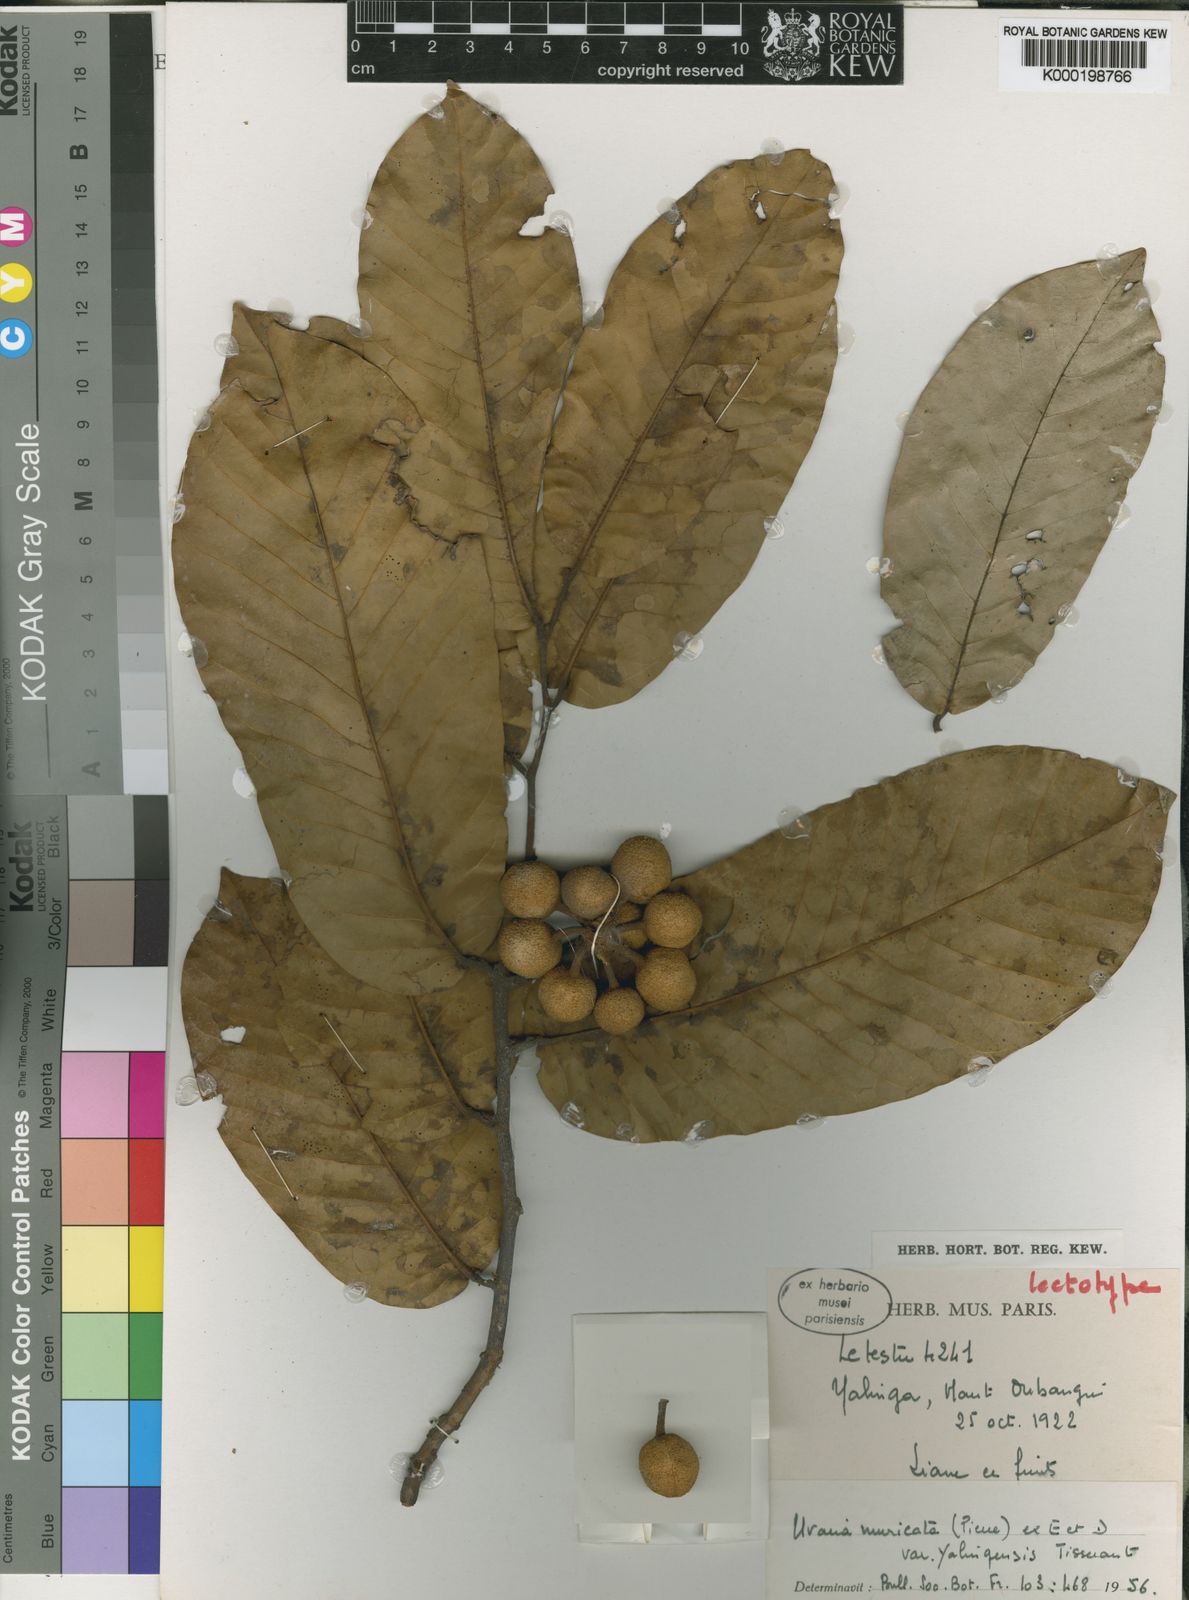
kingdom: Plantae
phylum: Tracheophyta
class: Magnoliopsida
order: Magnoliales
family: Annonaceae
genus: Uvaria
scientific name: Uvaria muricata
